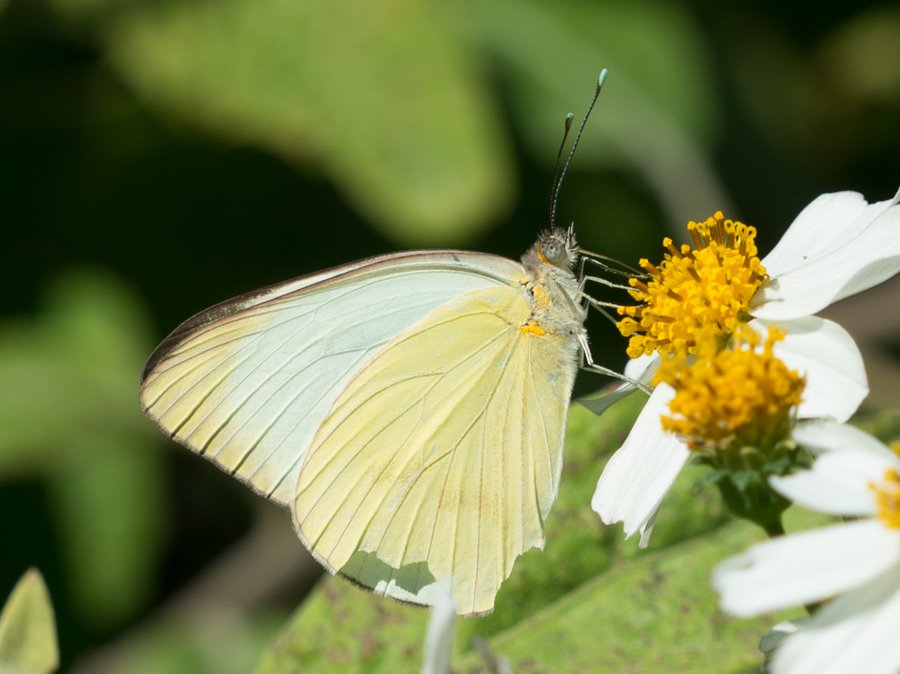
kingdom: Animalia
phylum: Arthropoda
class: Insecta
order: Lepidoptera
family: Pieridae
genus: Ascia
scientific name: Ascia monuste
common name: Great Southern White
